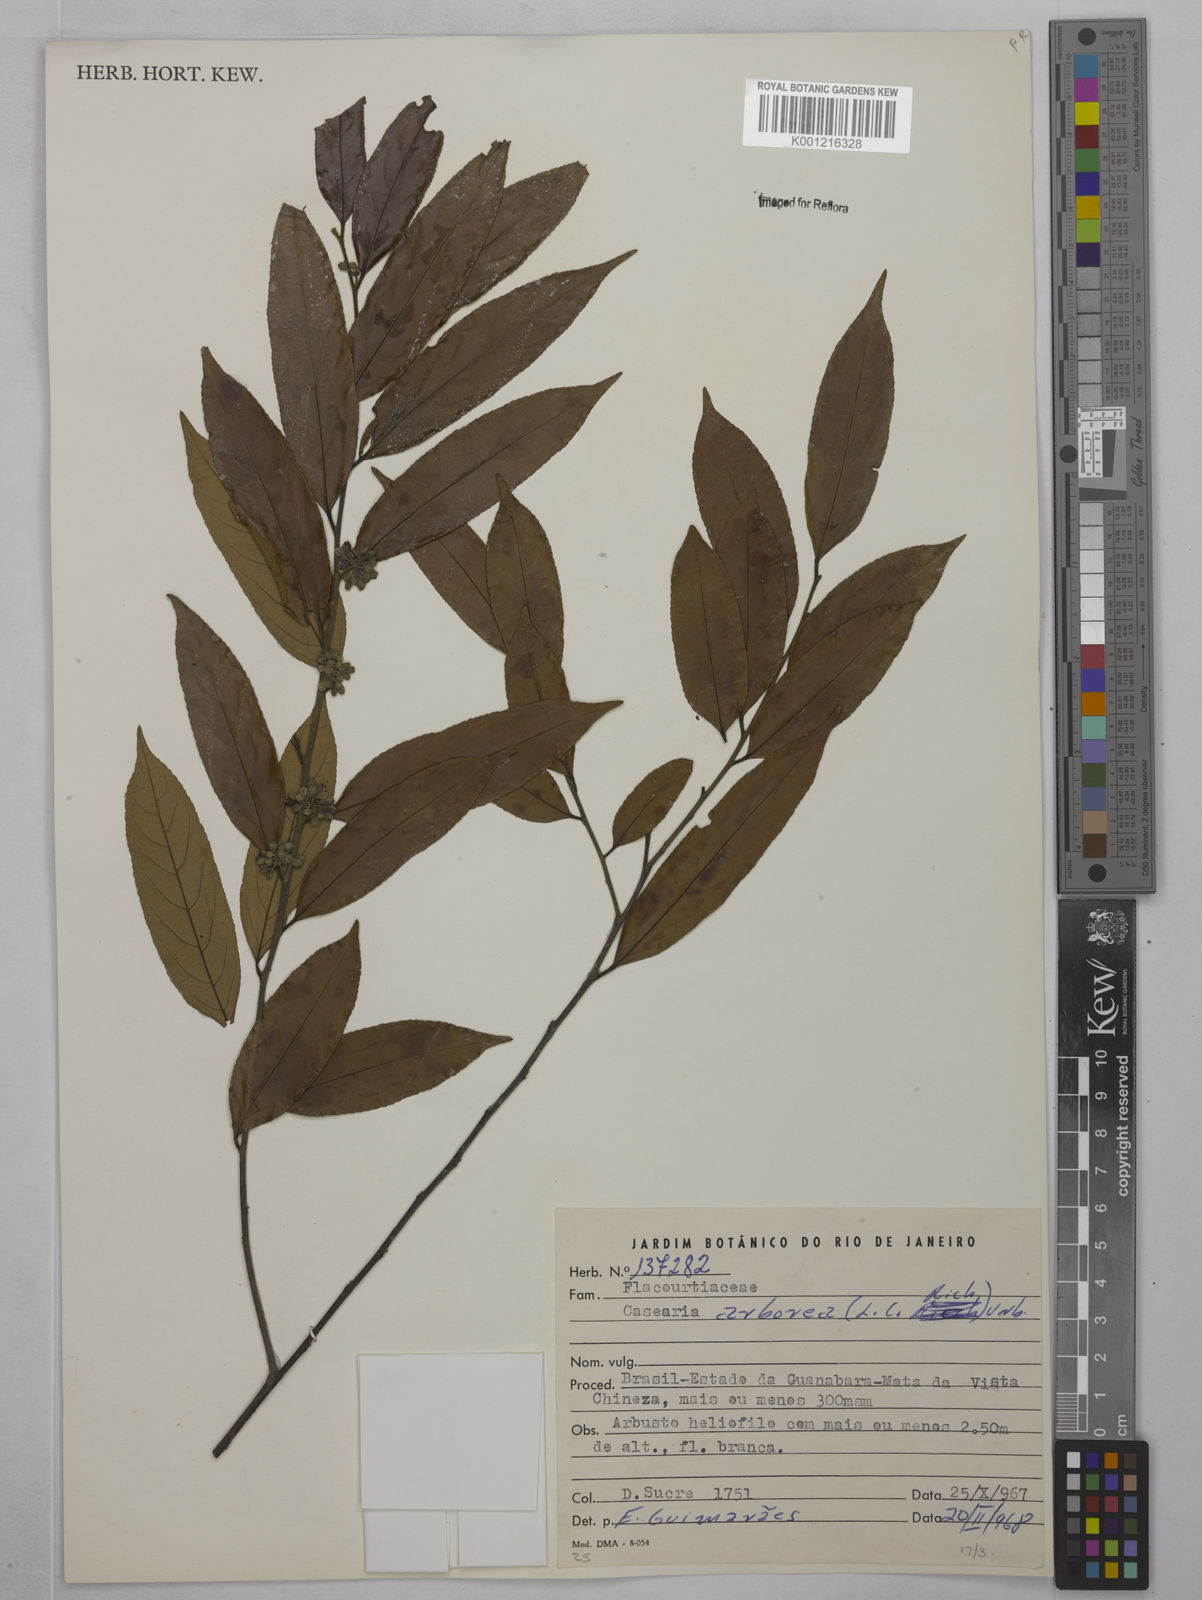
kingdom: Plantae
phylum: Tracheophyta
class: Magnoliopsida
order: Malpighiales
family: Salicaceae
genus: Casearia
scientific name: Casearia arborea
